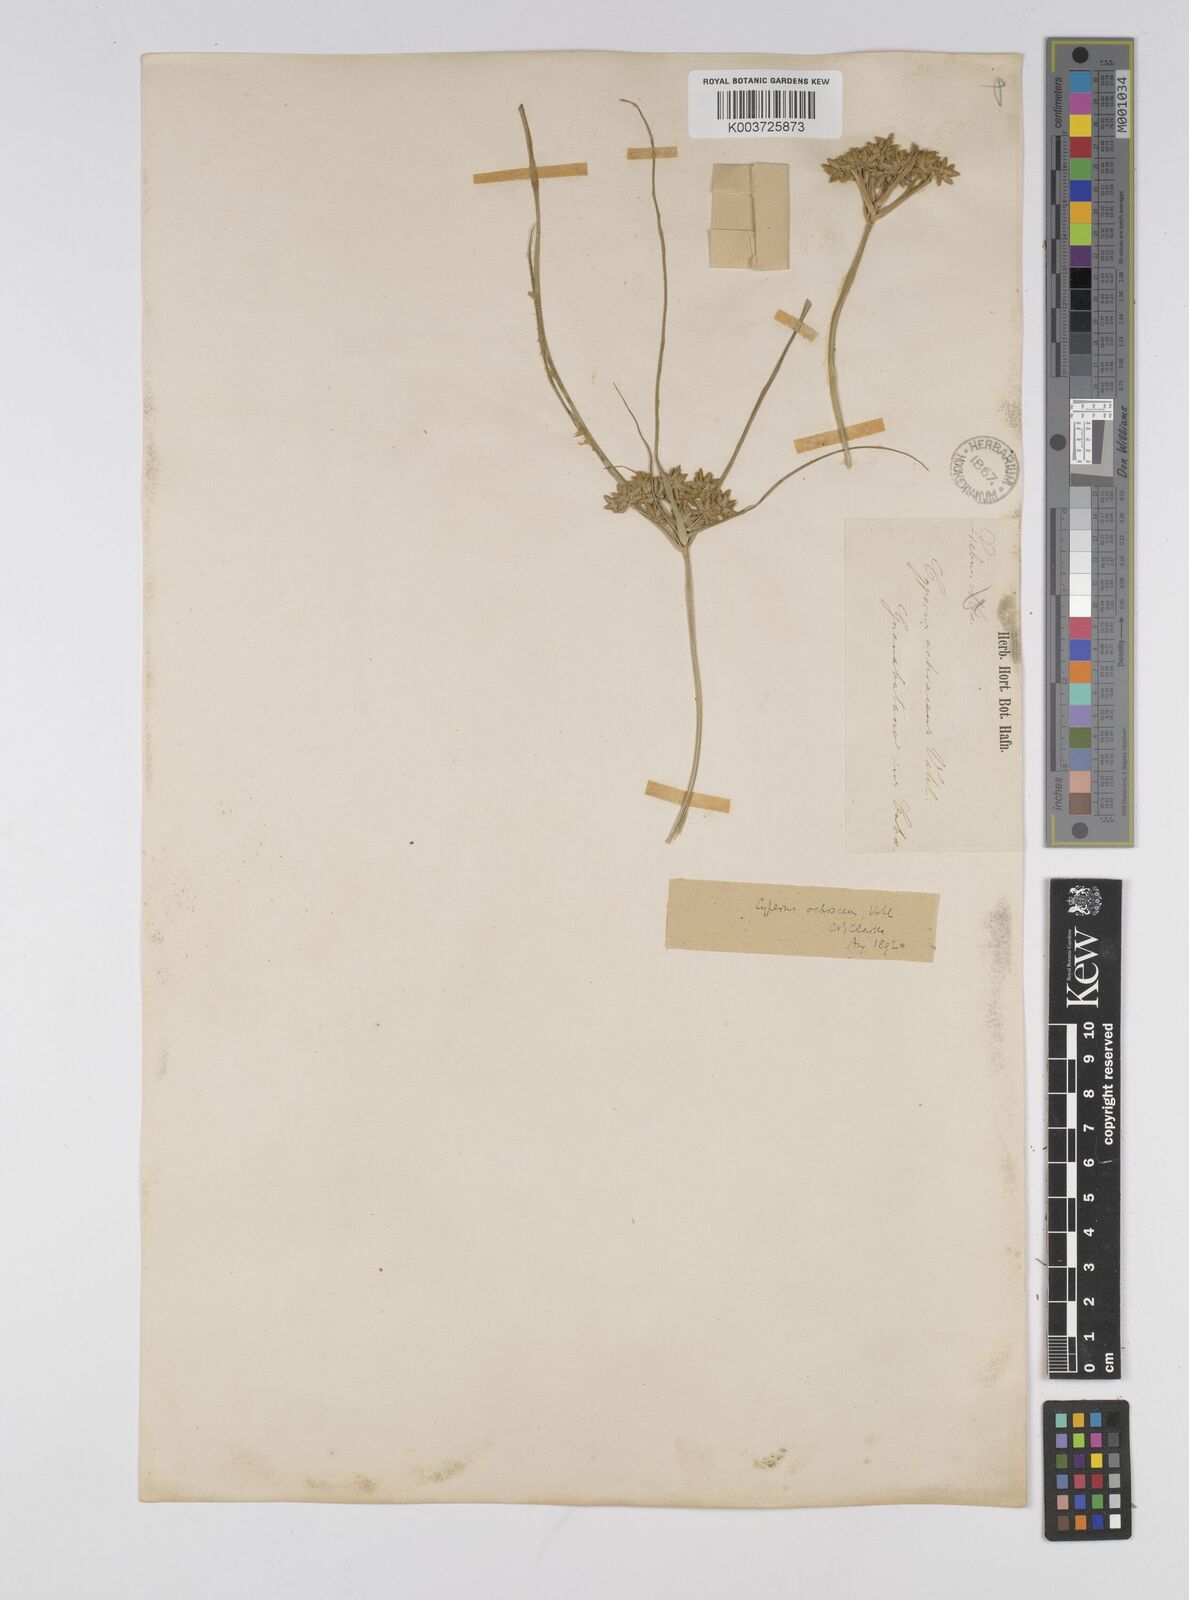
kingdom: Plantae
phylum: Tracheophyta
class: Liliopsida
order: Poales
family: Cyperaceae
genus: Cyperus
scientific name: Cyperus ochraceus
